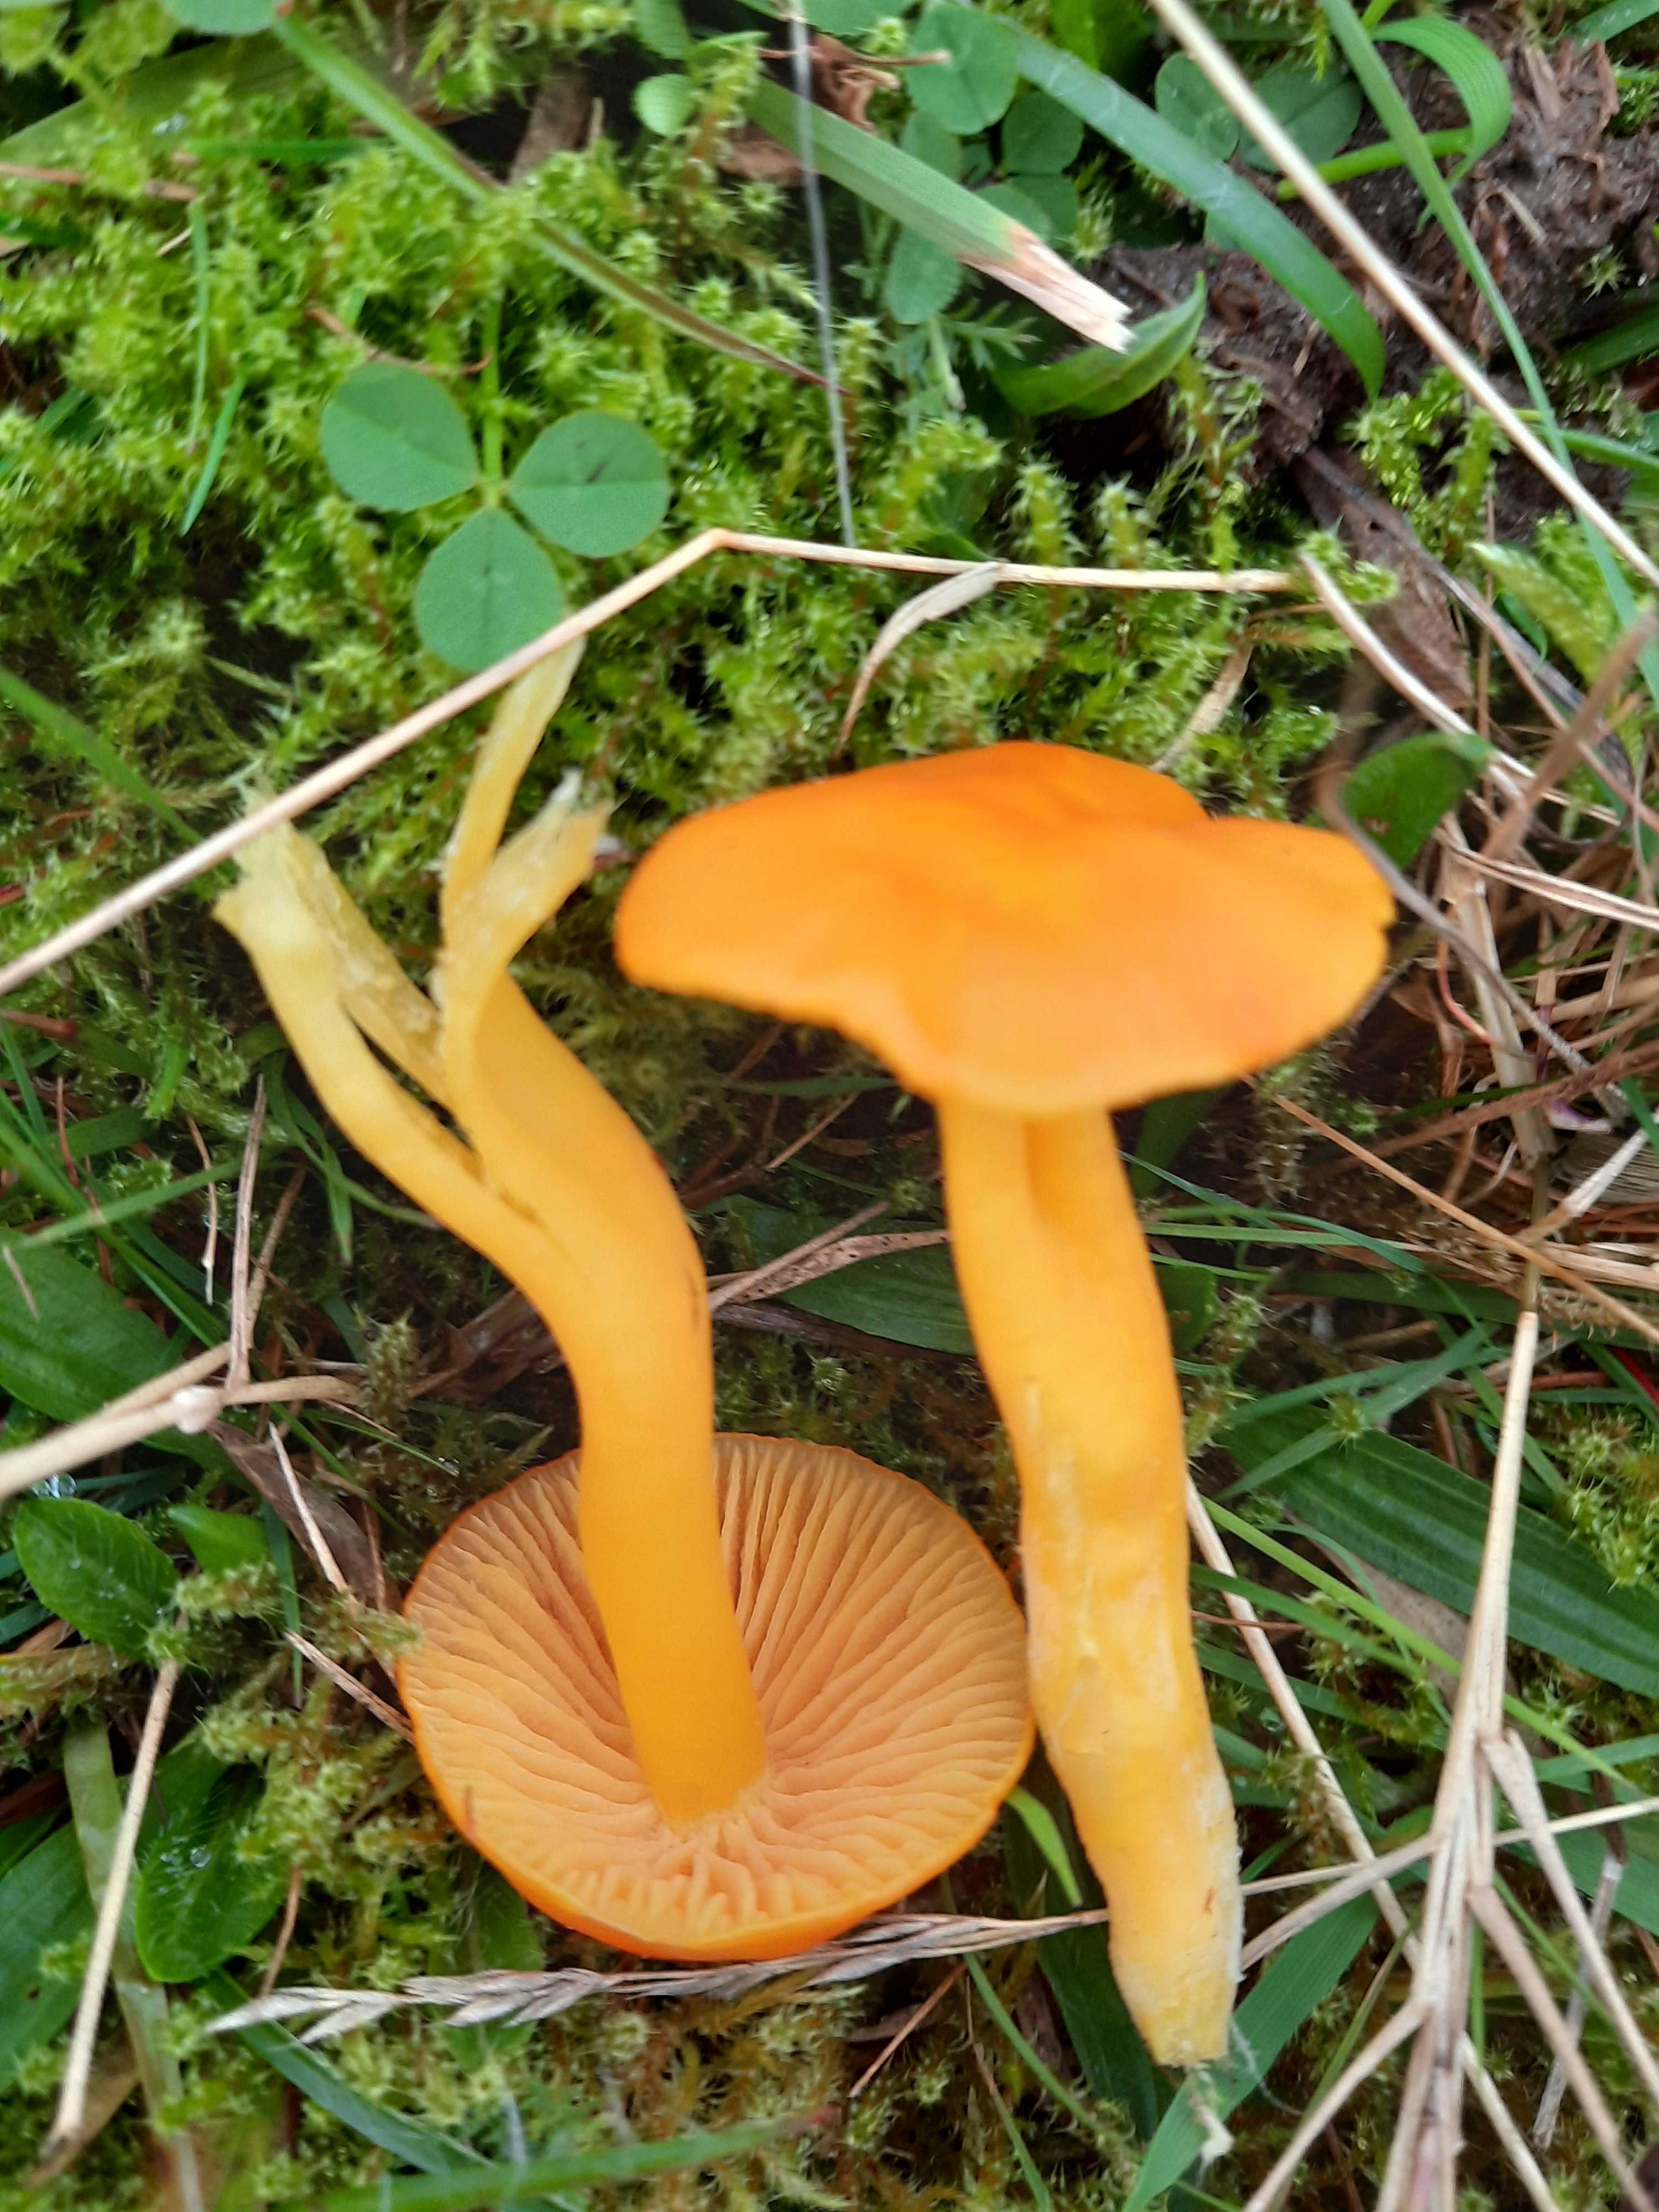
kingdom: Fungi
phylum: Basidiomycota
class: Agaricomycetes
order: Agaricales
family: Hygrophoraceae
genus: Hygrocybe
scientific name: Hygrocybe chlorophana
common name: gul vokshat
